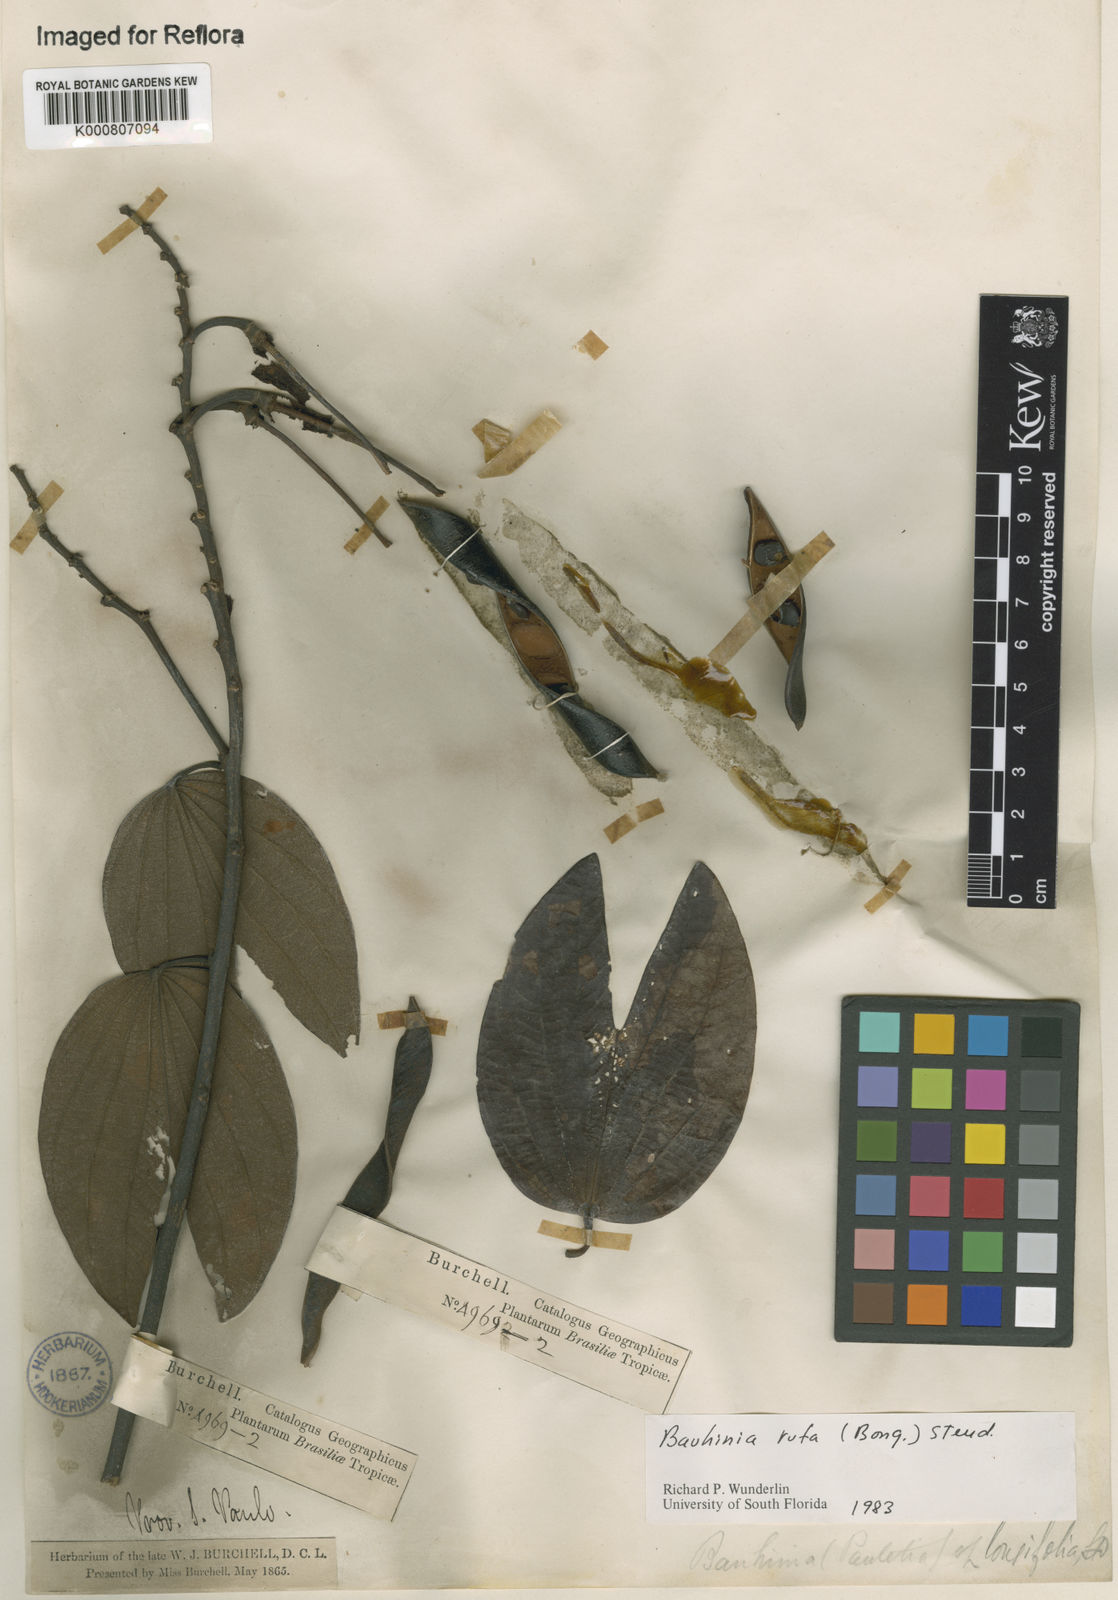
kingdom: Plantae
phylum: Tracheophyta
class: Magnoliopsida
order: Fabales
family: Fabaceae
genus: Bauhinia
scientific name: Bauhinia rufa
